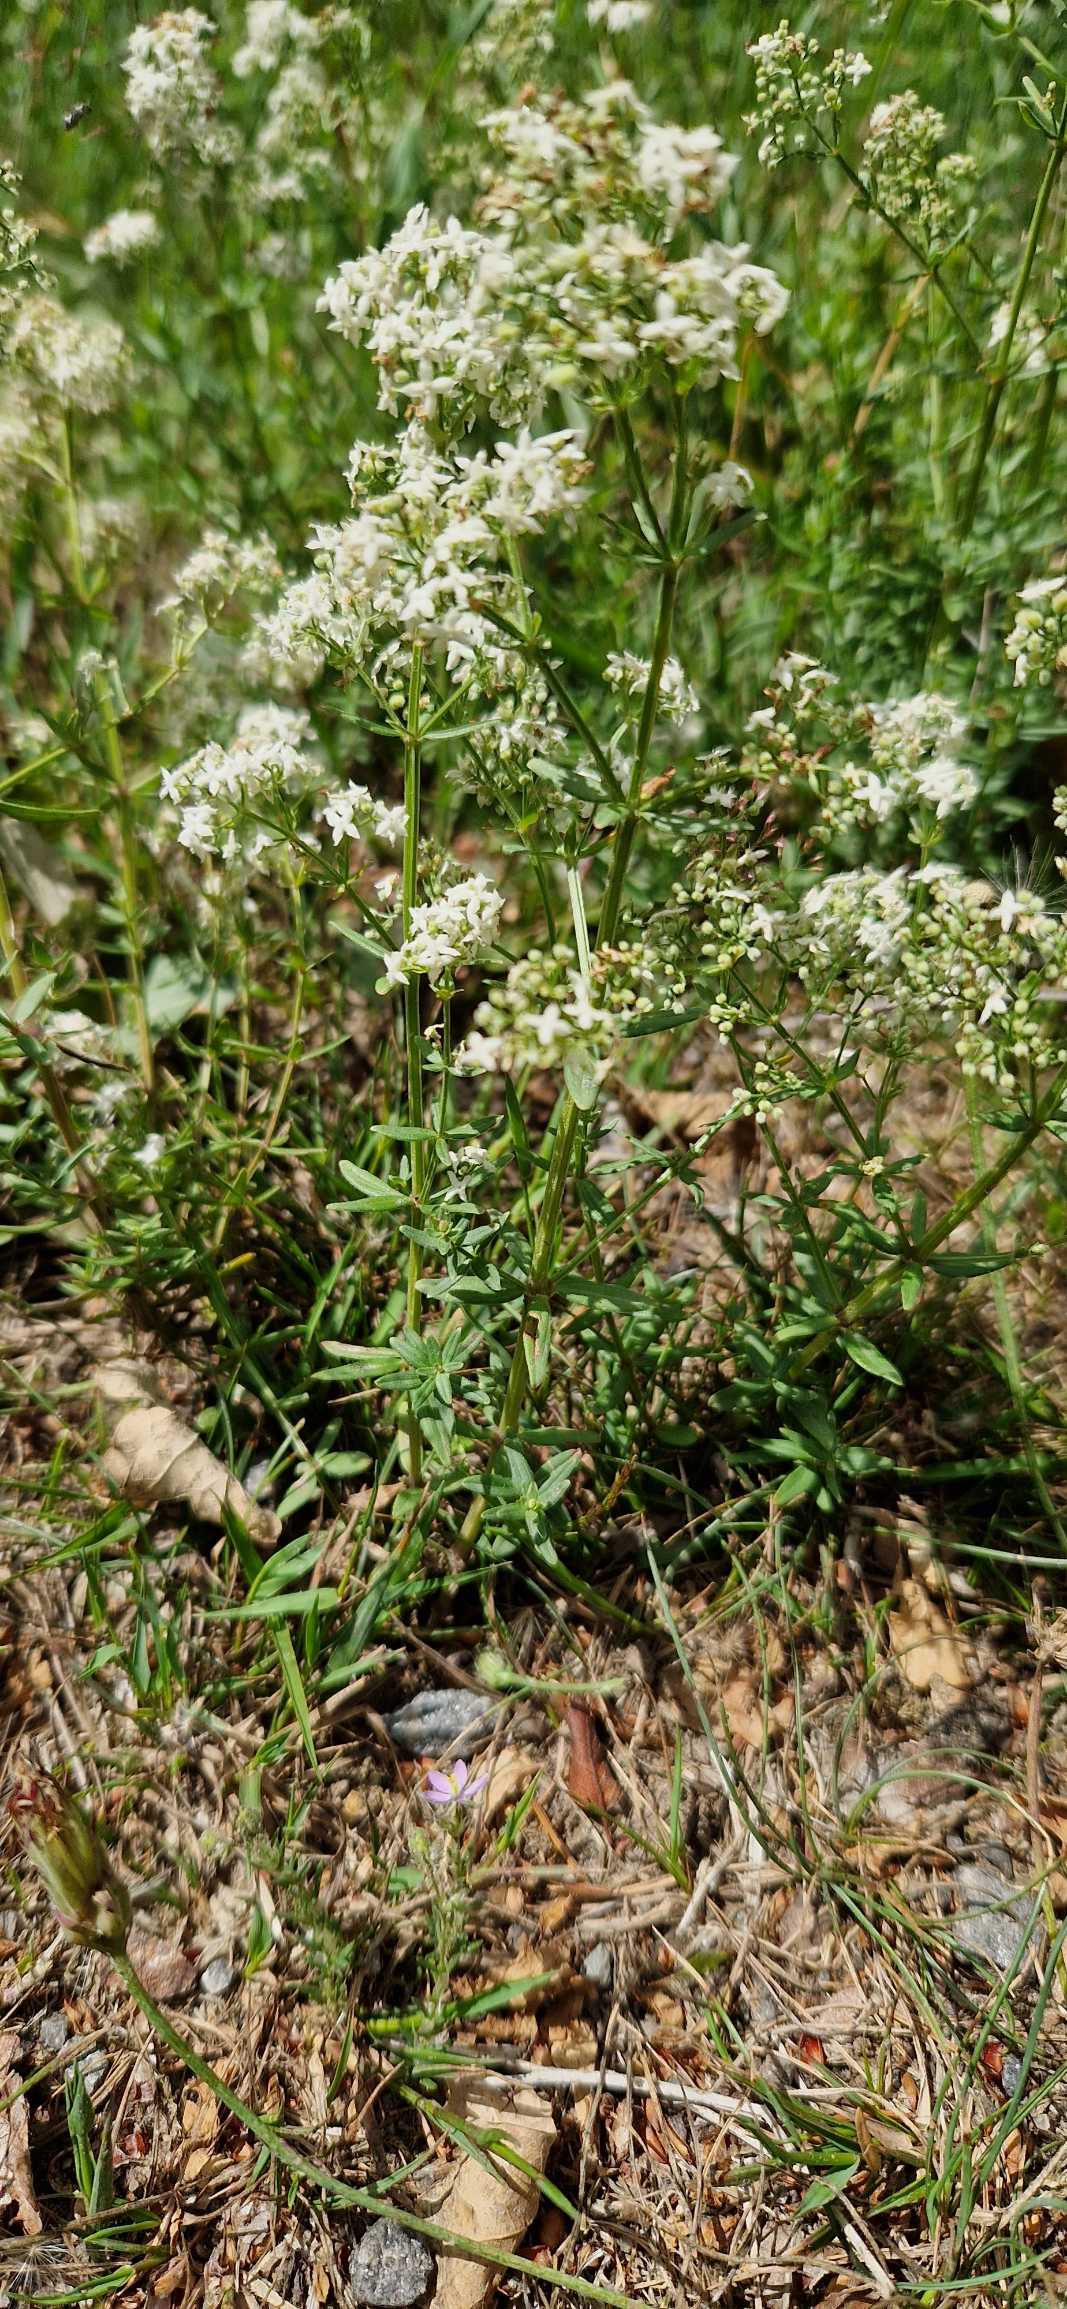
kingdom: Plantae
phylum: Tracheophyta
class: Magnoliopsida
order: Gentianales
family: Rubiaceae
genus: Galium
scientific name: Galium boreale
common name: Trenervet snerre
